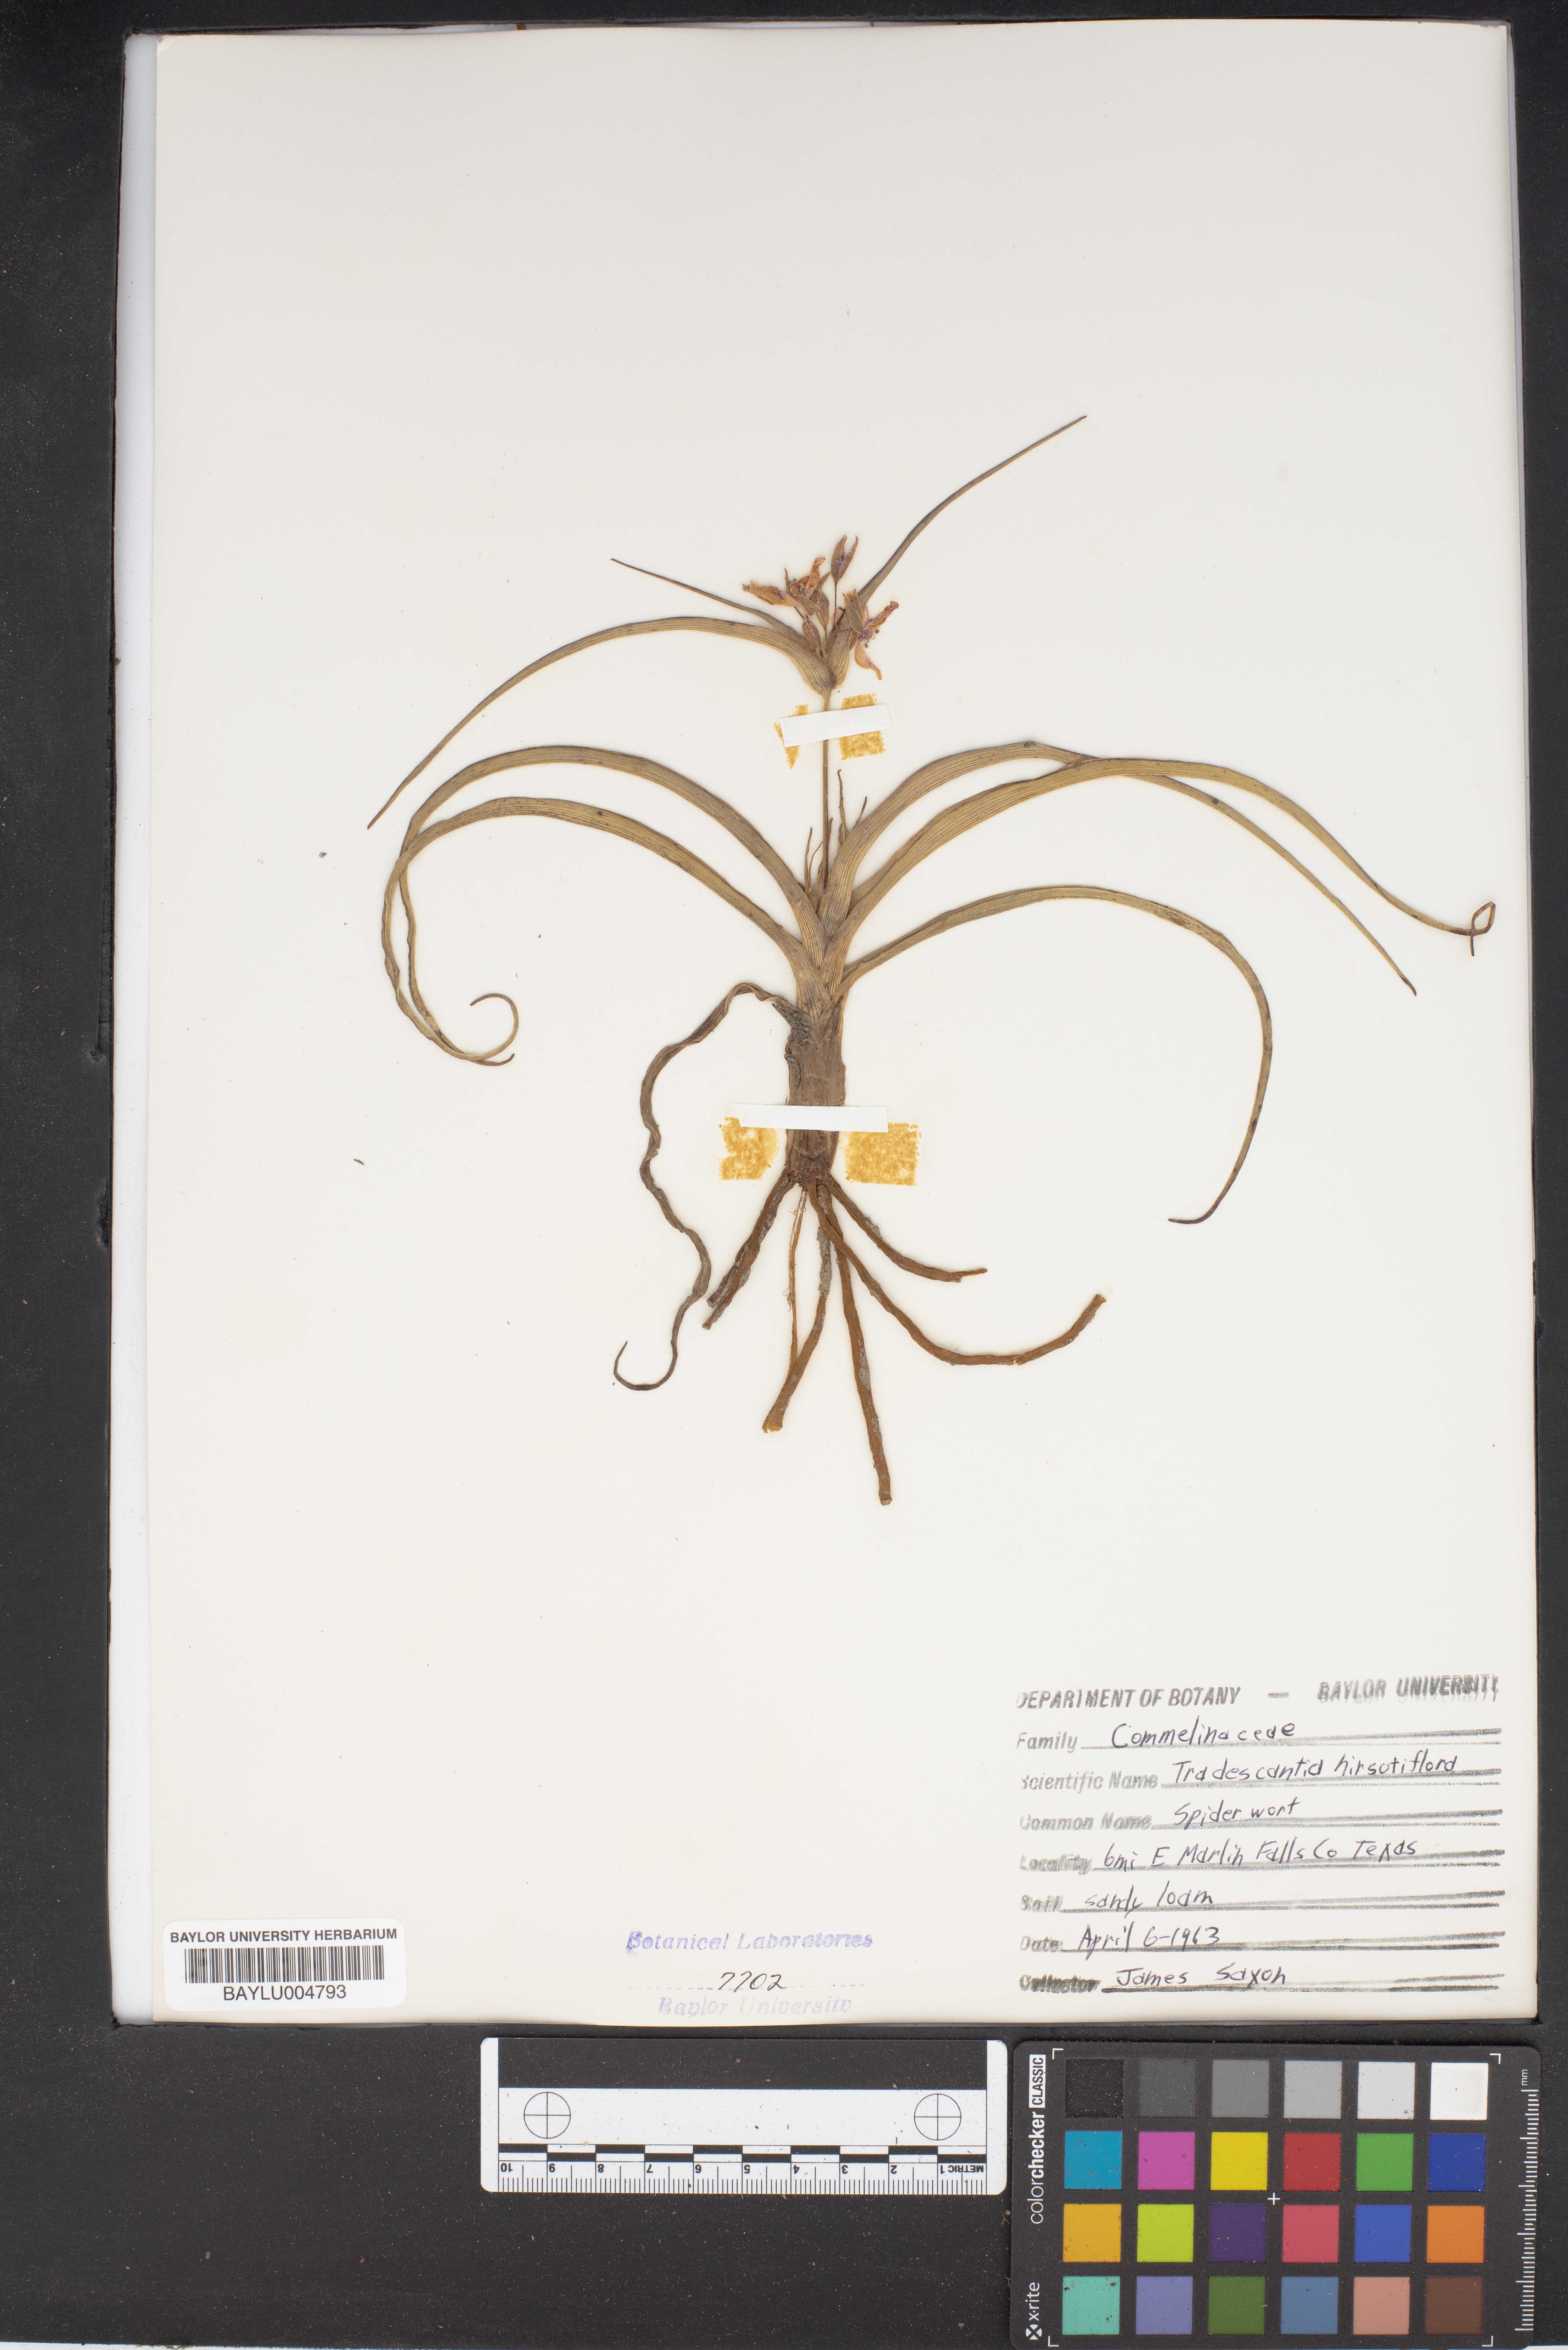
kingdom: Plantae
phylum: Tracheophyta
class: Liliopsida
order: Commelinales
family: Commelinaceae
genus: Tradescantia
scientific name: Tradescantia hirsutiflora
